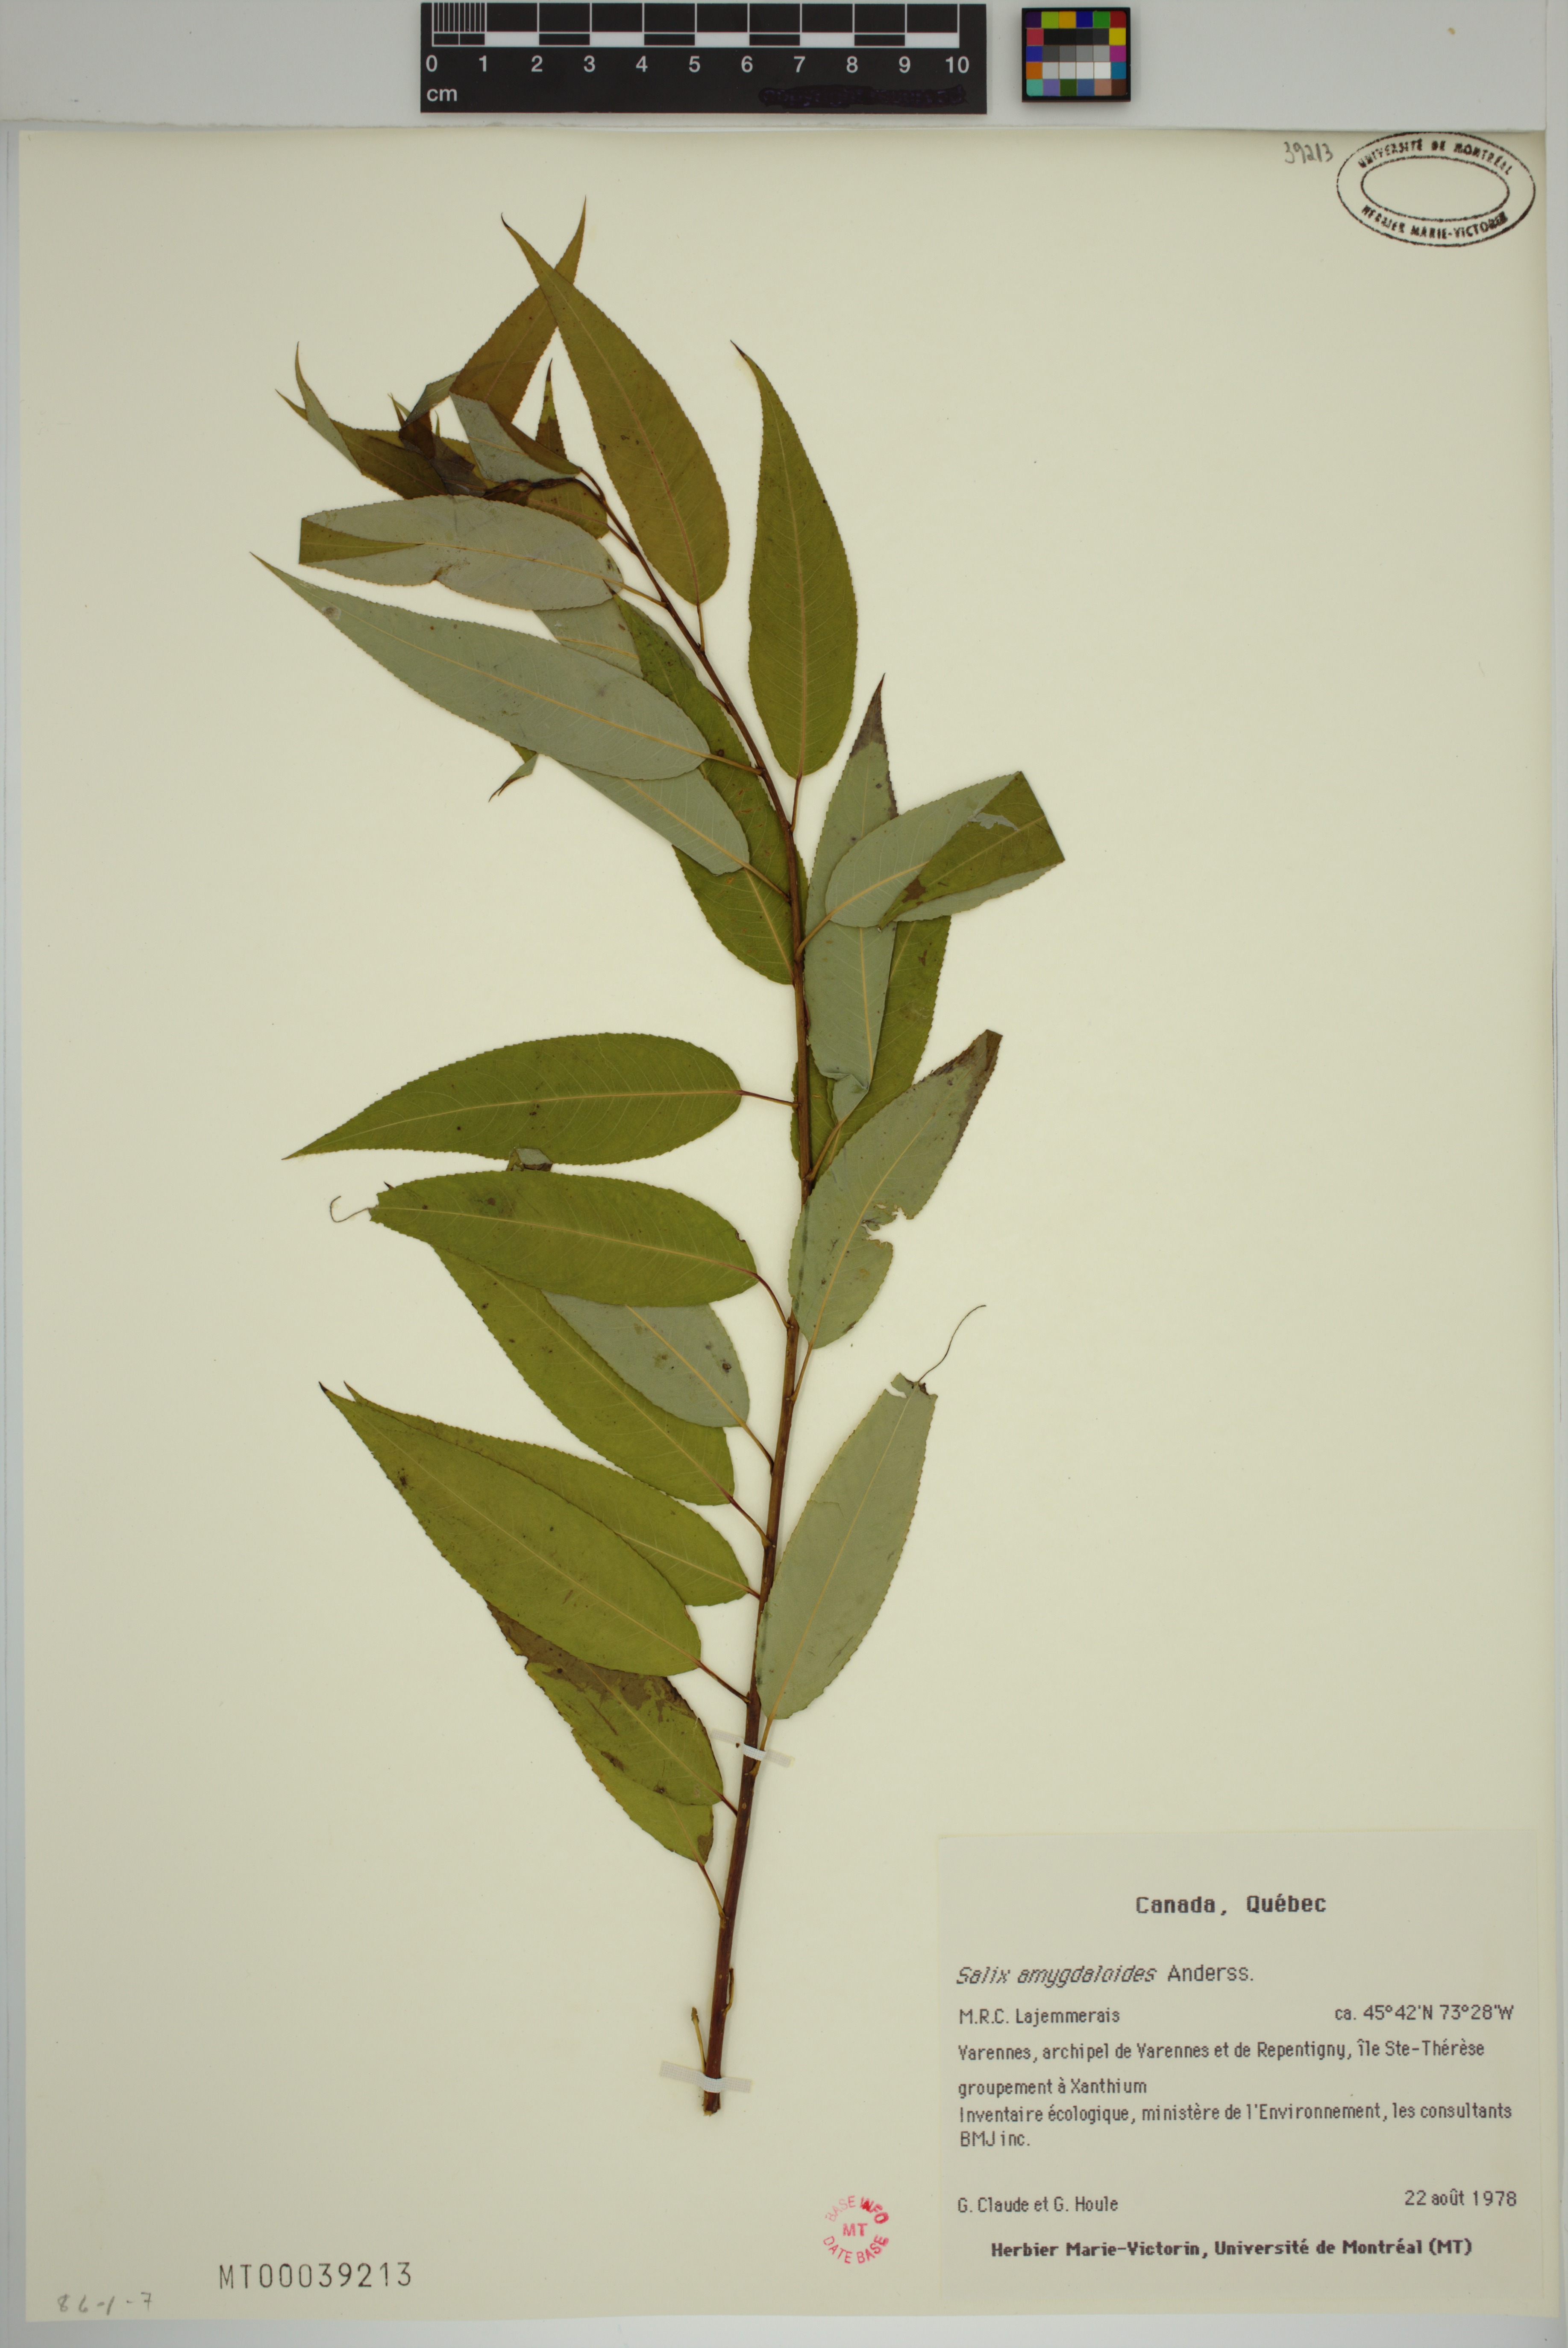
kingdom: Plantae
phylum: Tracheophyta
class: Magnoliopsida
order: Malpighiales
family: Salicaceae
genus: Salix
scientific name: Salix amygdaloides
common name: Peach leaf willow
